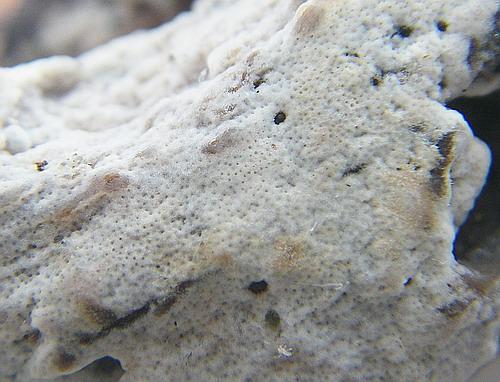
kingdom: Fungi
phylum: Basidiomycota
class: Agaricomycetes
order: Polyporales
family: Irpicaceae
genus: Ceriporia
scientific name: Ceriporia viridans
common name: foranderlig voksporesvamp
